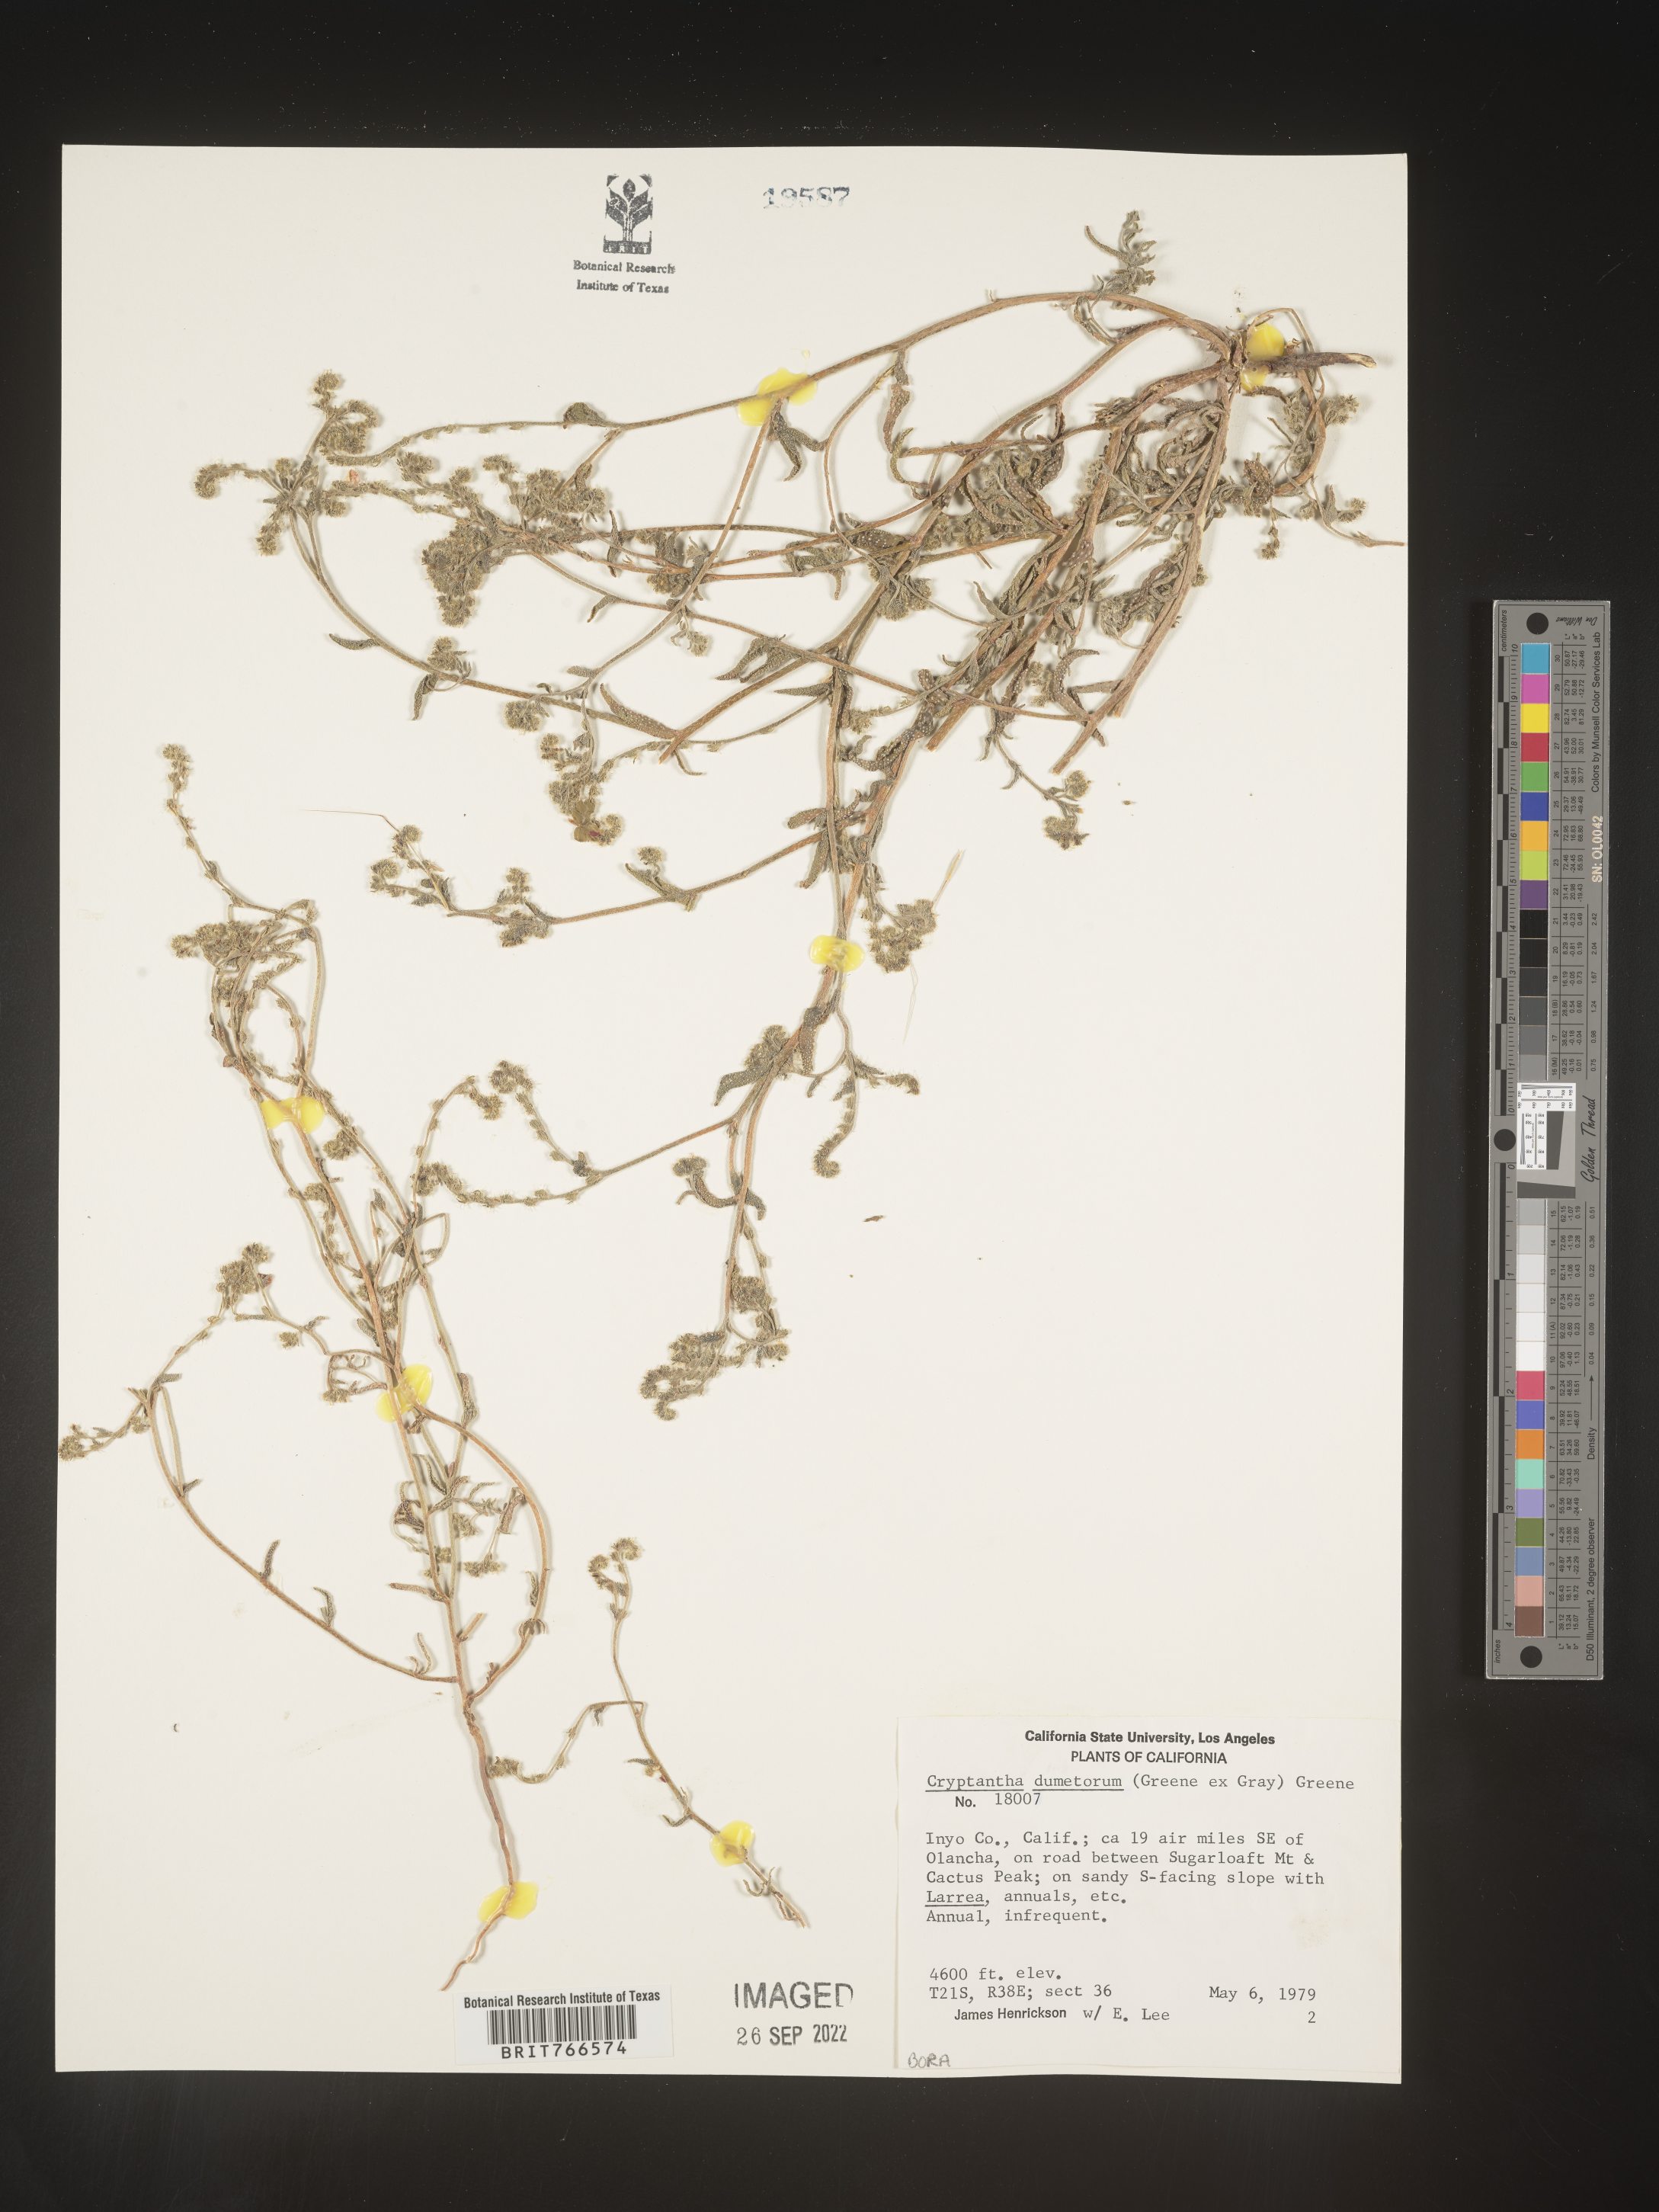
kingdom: Plantae
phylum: Tracheophyta
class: Magnoliopsida
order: Boraginales
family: Boraginaceae
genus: Cryptantha
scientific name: Cryptantha
